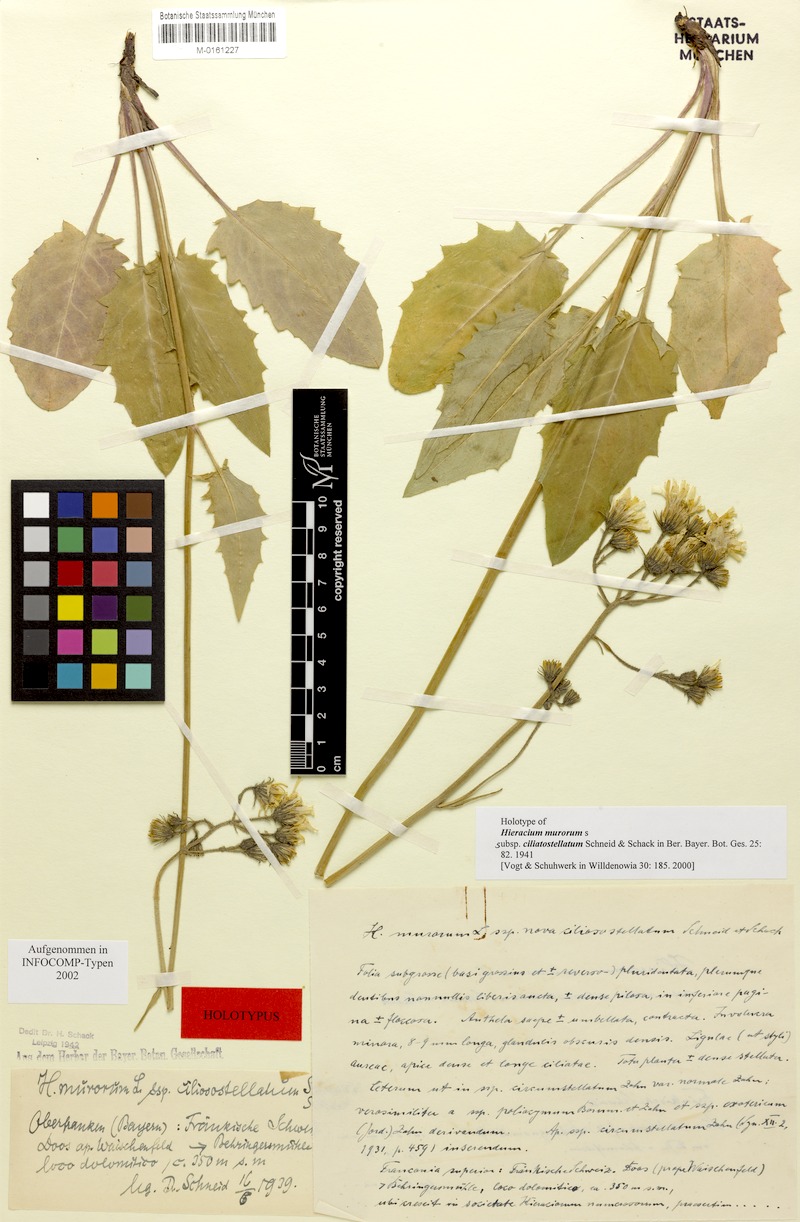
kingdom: Plantae
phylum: Tracheophyta
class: Magnoliopsida
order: Asterales
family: Asteraceae
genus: Hieracium
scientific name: Hieracium murorum
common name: Wall hawkweed
